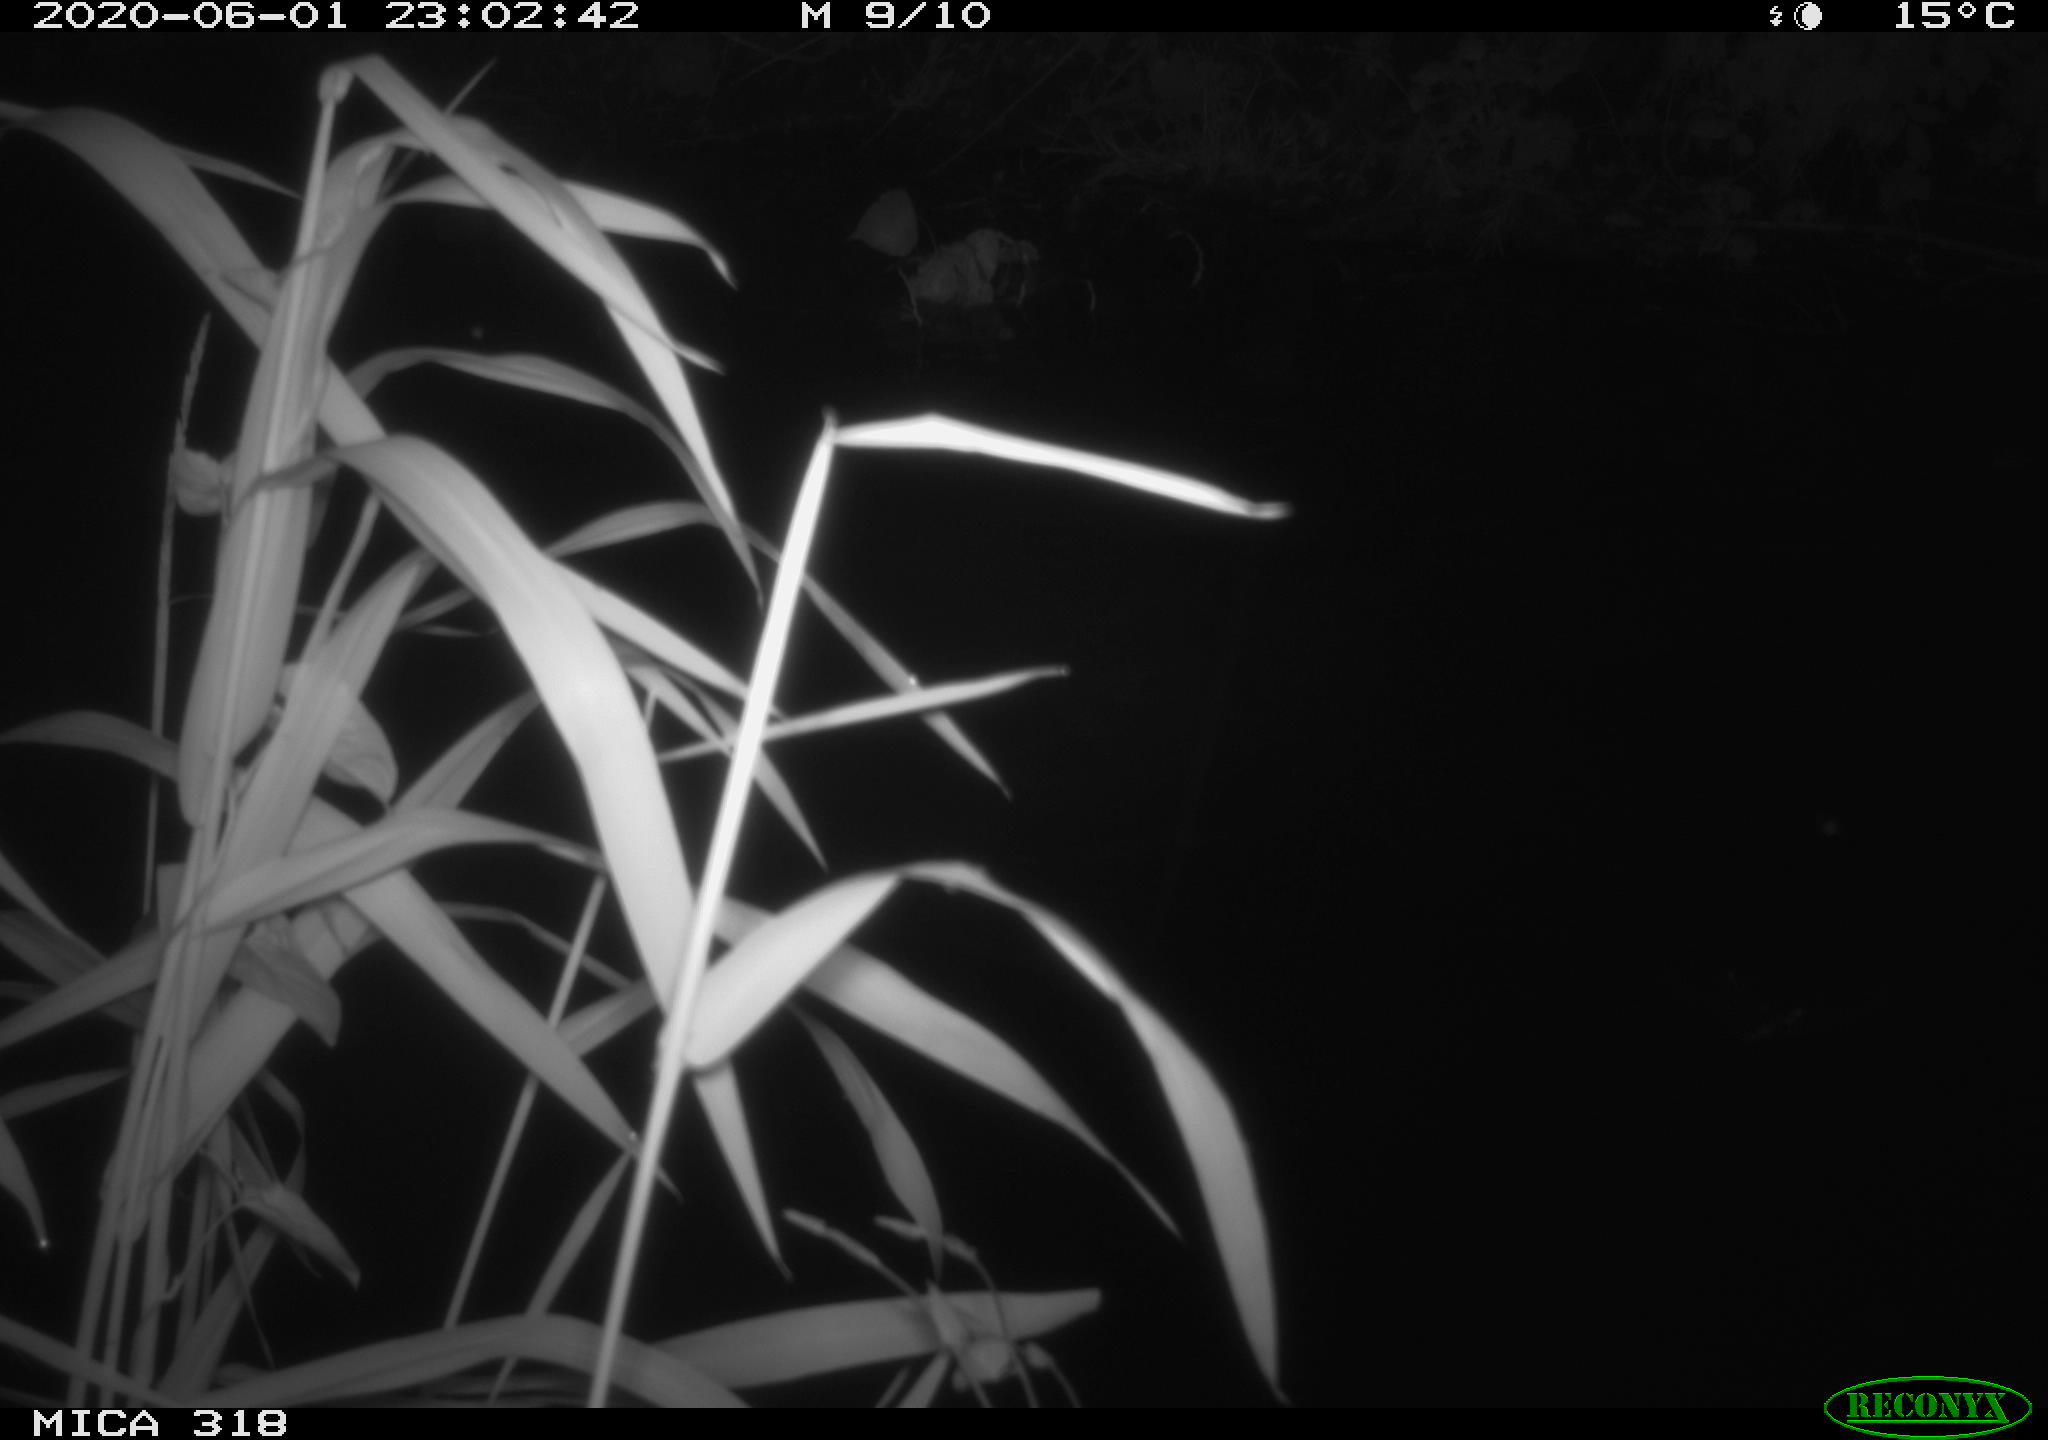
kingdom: Animalia
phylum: Chordata
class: Aves
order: Anseriformes
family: Anatidae
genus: Anas
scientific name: Anas platyrhynchos
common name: Mallard
